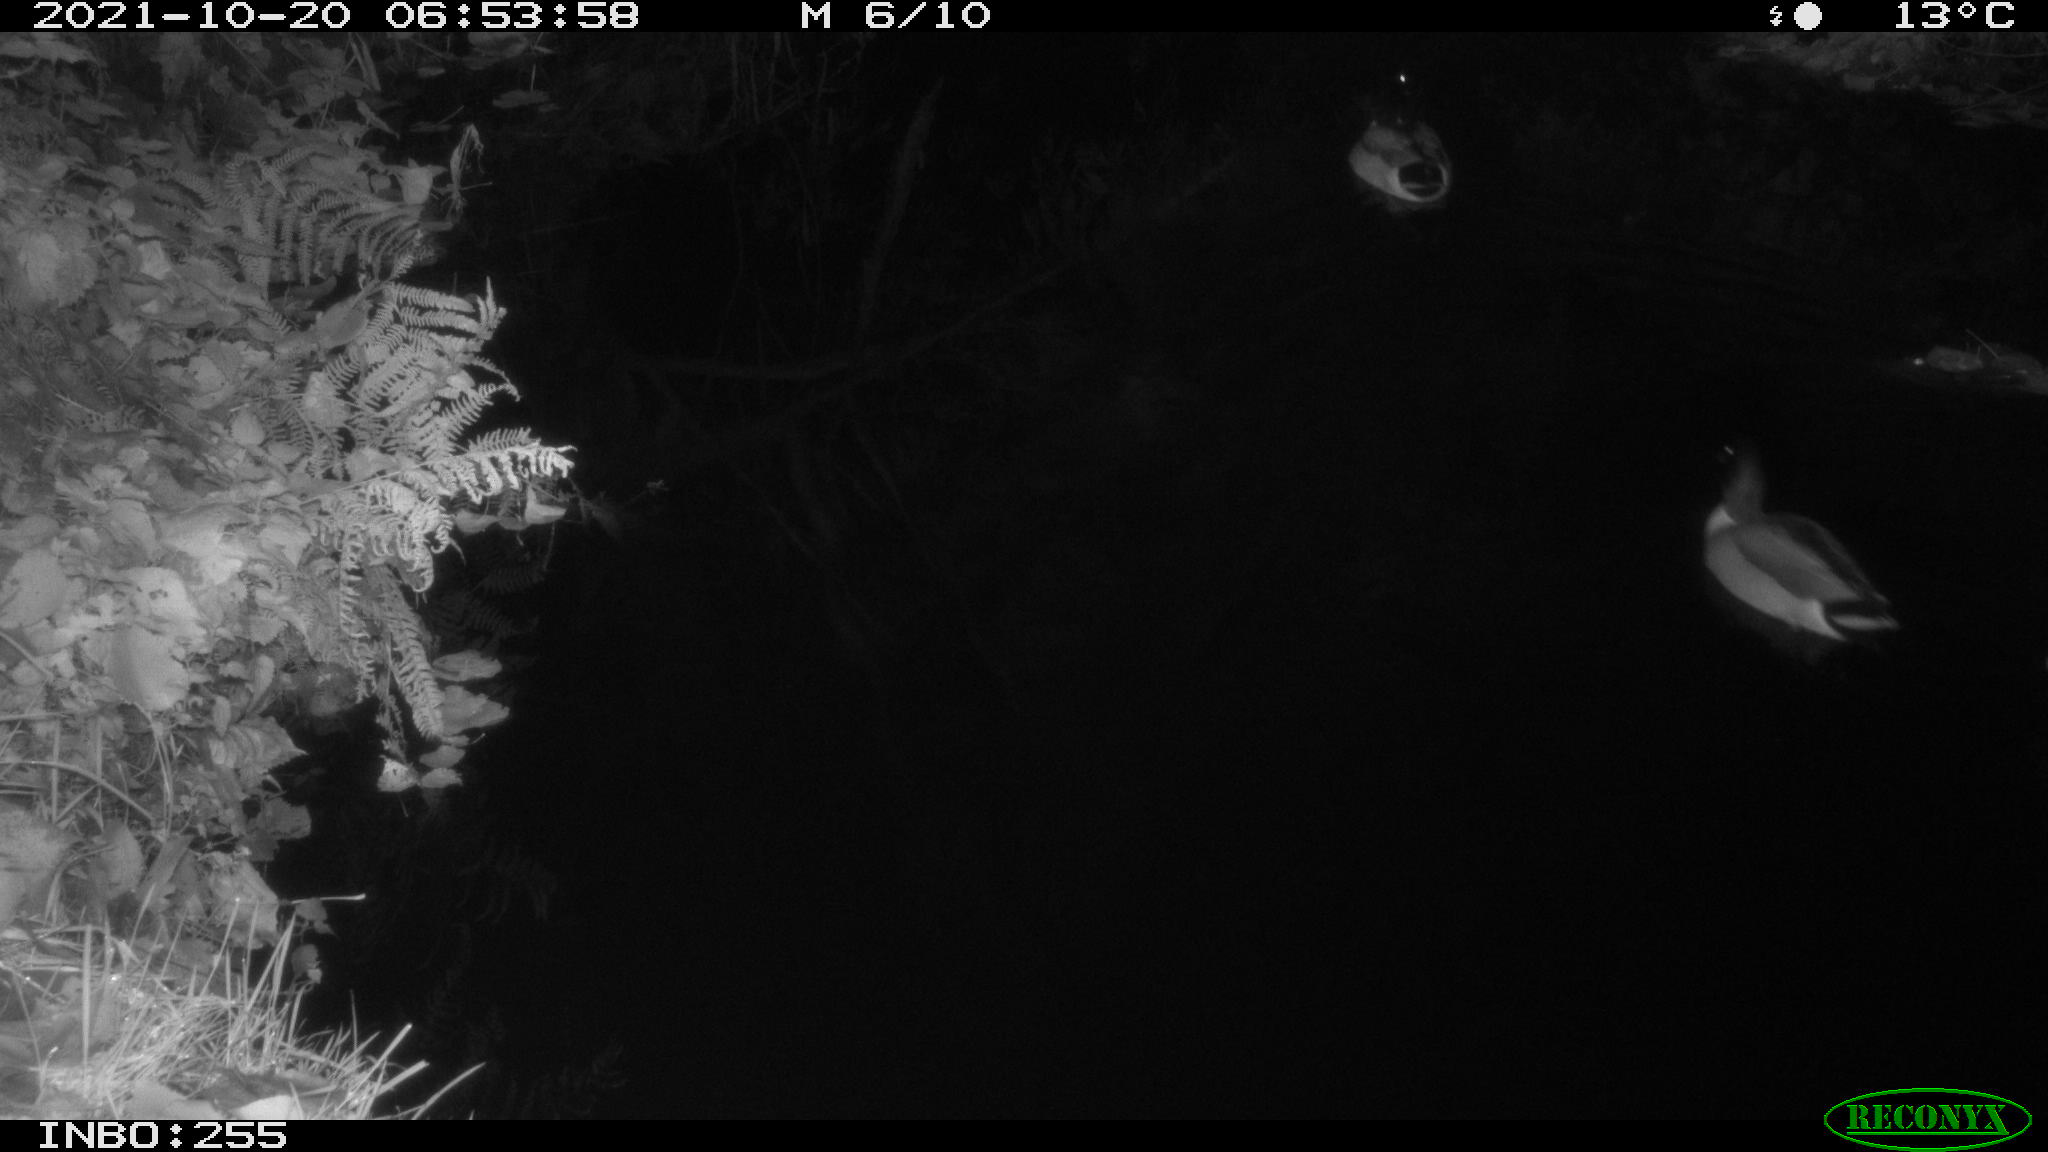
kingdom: Animalia
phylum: Chordata
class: Aves
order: Anseriformes
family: Anatidae
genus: Anas
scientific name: Anas platyrhynchos
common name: Mallard
